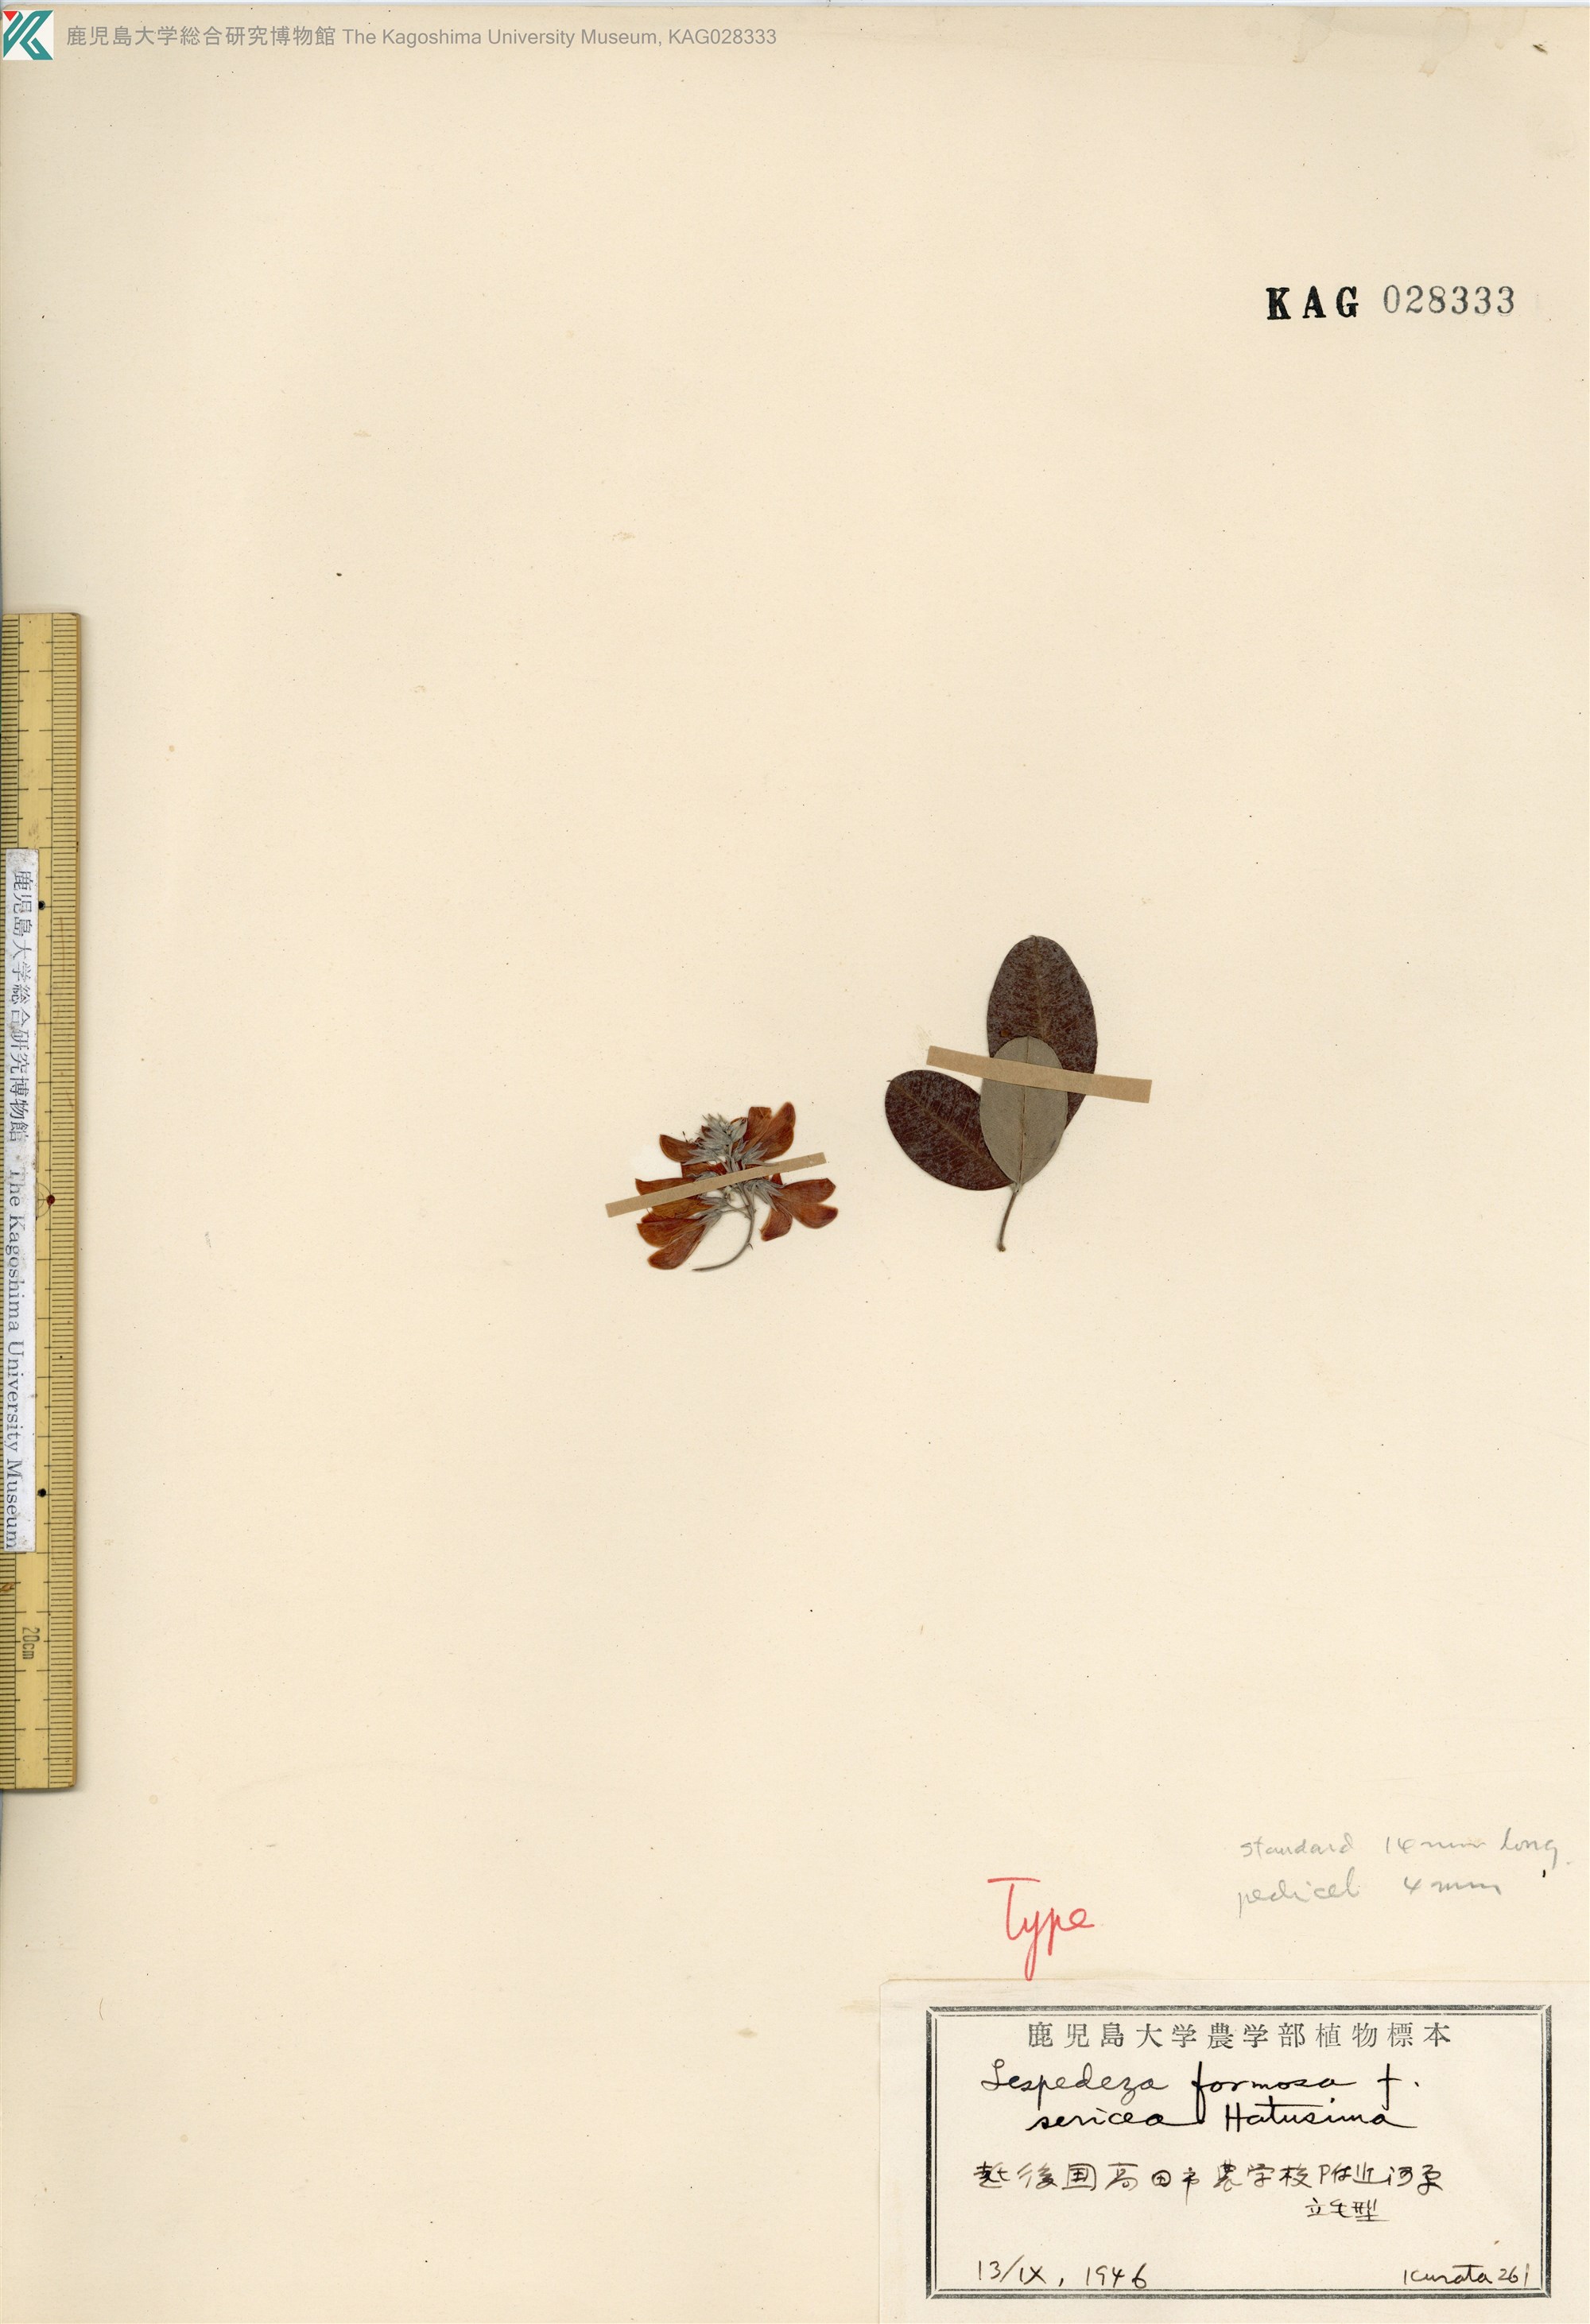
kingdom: Plantae
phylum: Tracheophyta
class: Magnoliopsida
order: Fabales
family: Fabaceae
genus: Lespedeza
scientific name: Lespedeza thunbergii
